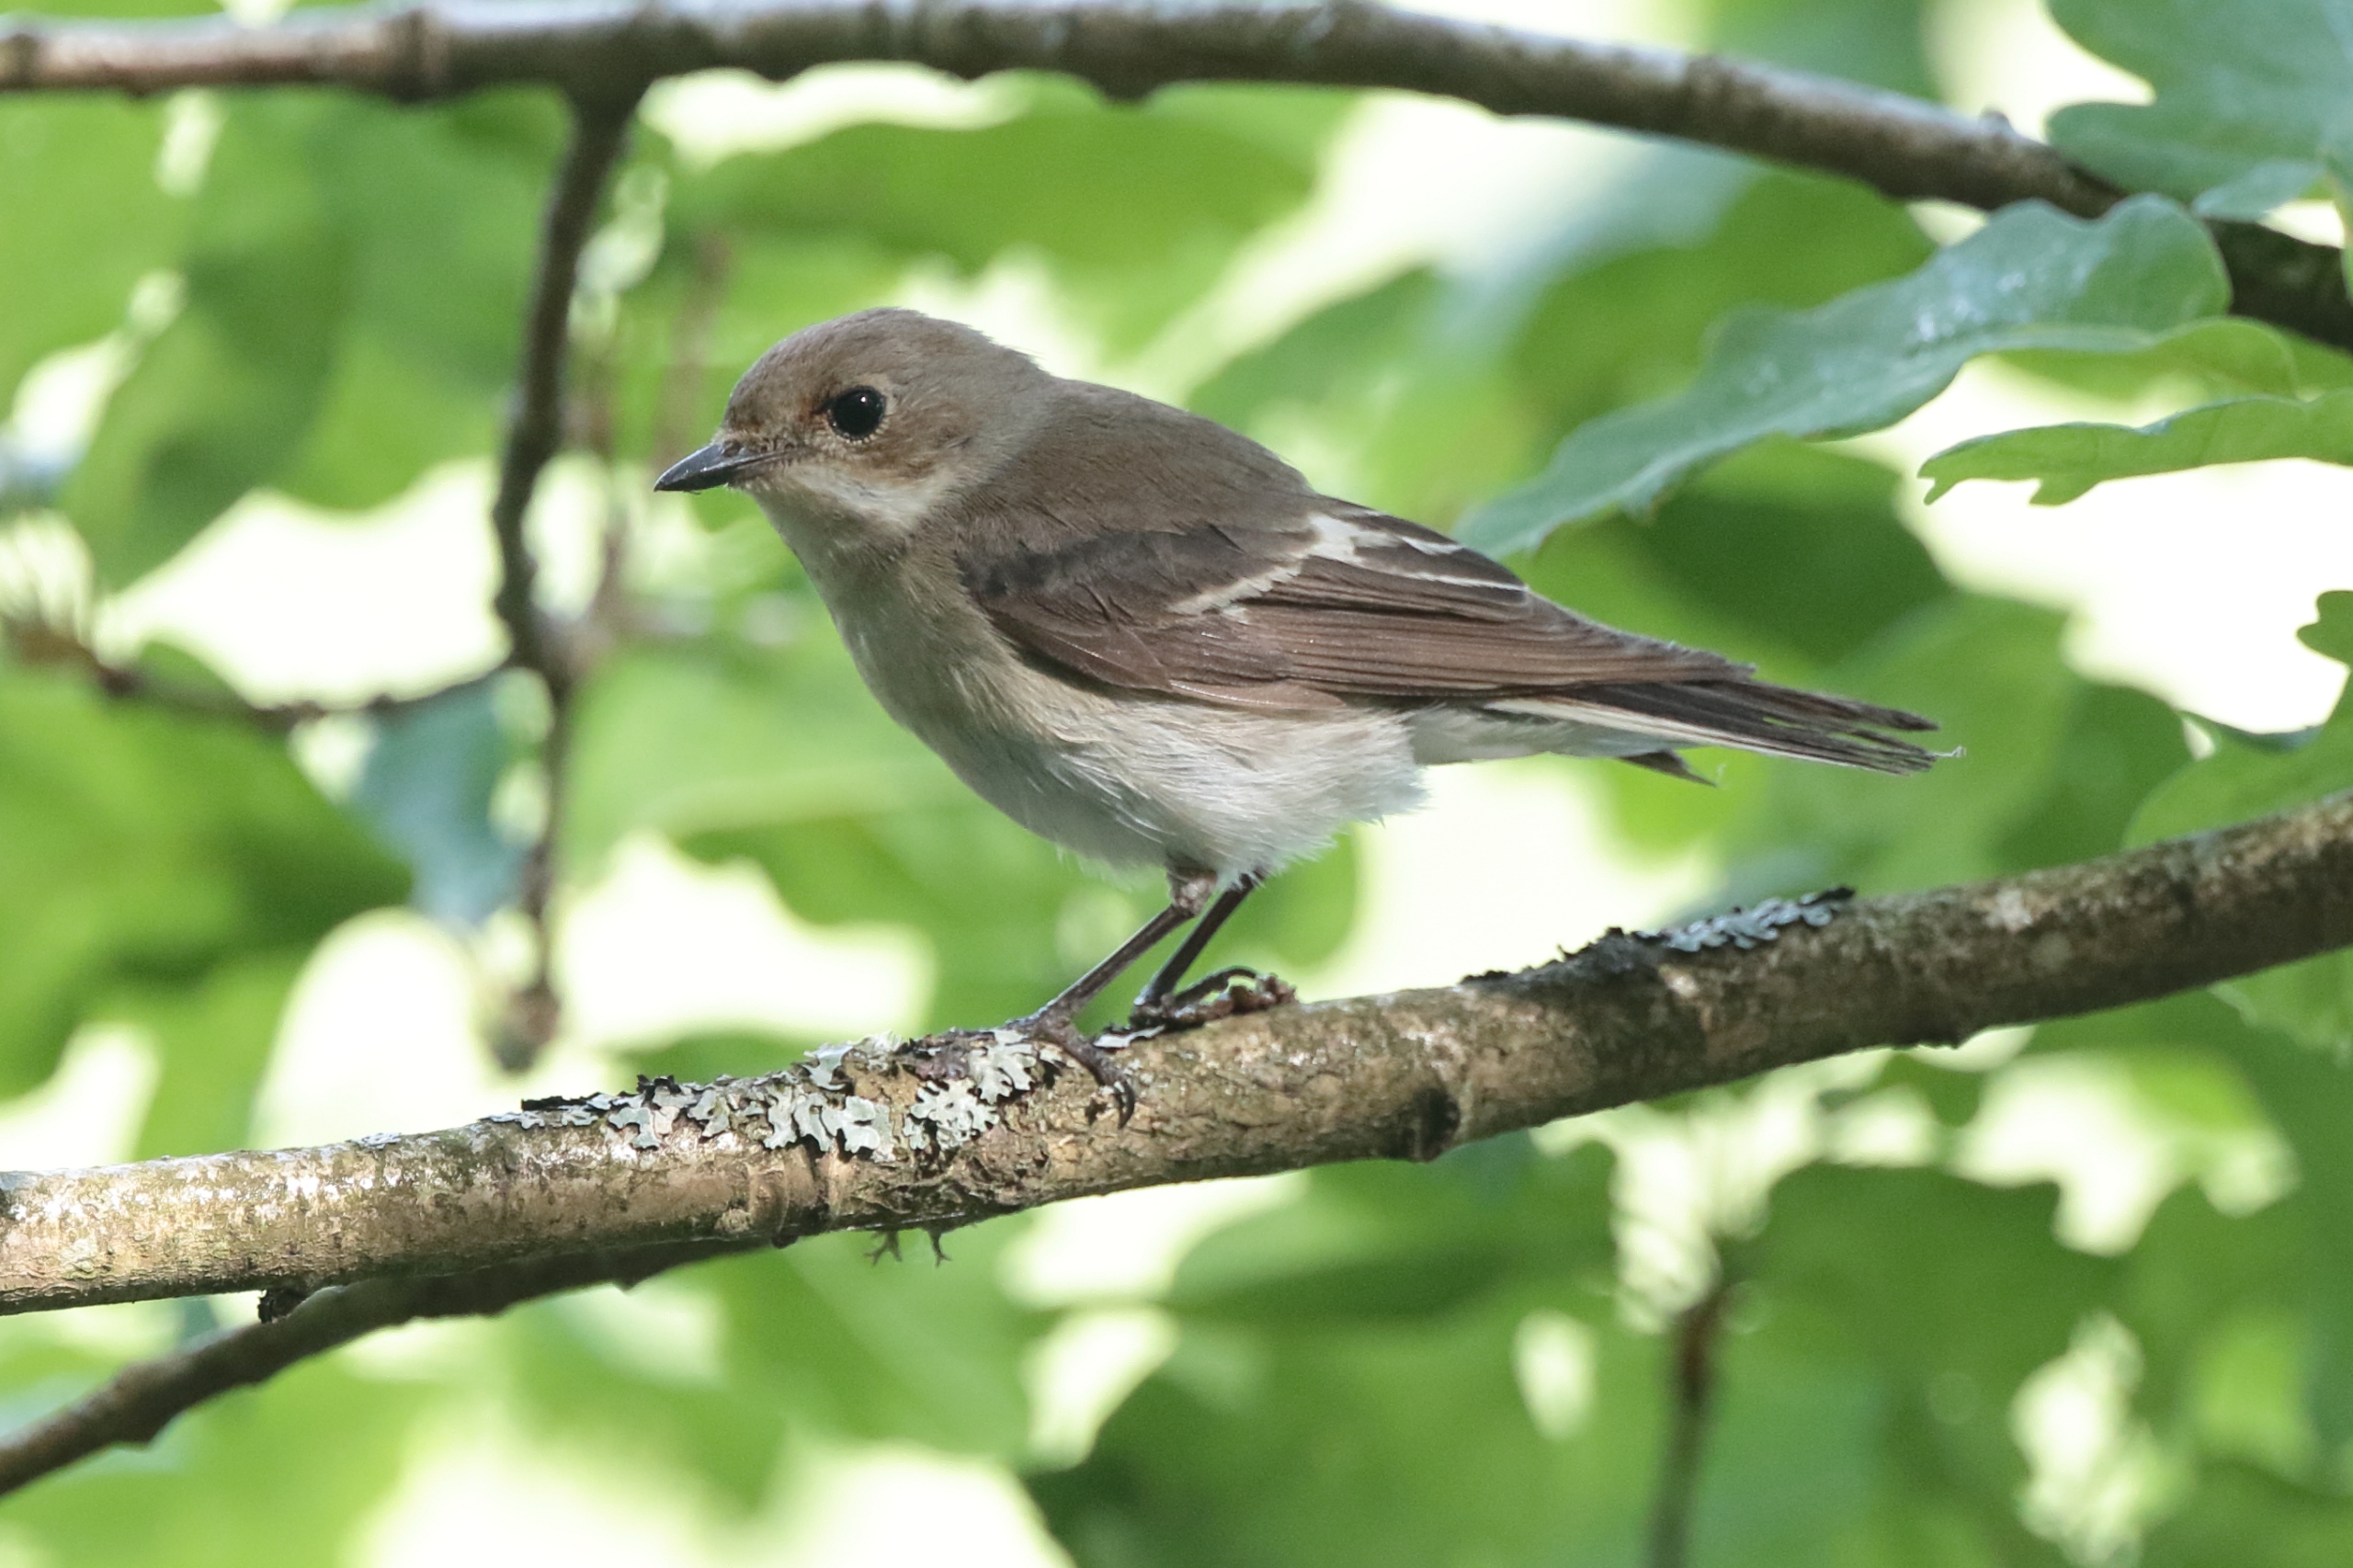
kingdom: Animalia
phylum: Chordata
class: Aves
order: Passeriformes
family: Muscicapidae
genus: Ficedula
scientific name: Ficedula hypoleuca
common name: Broget fluesnapper
